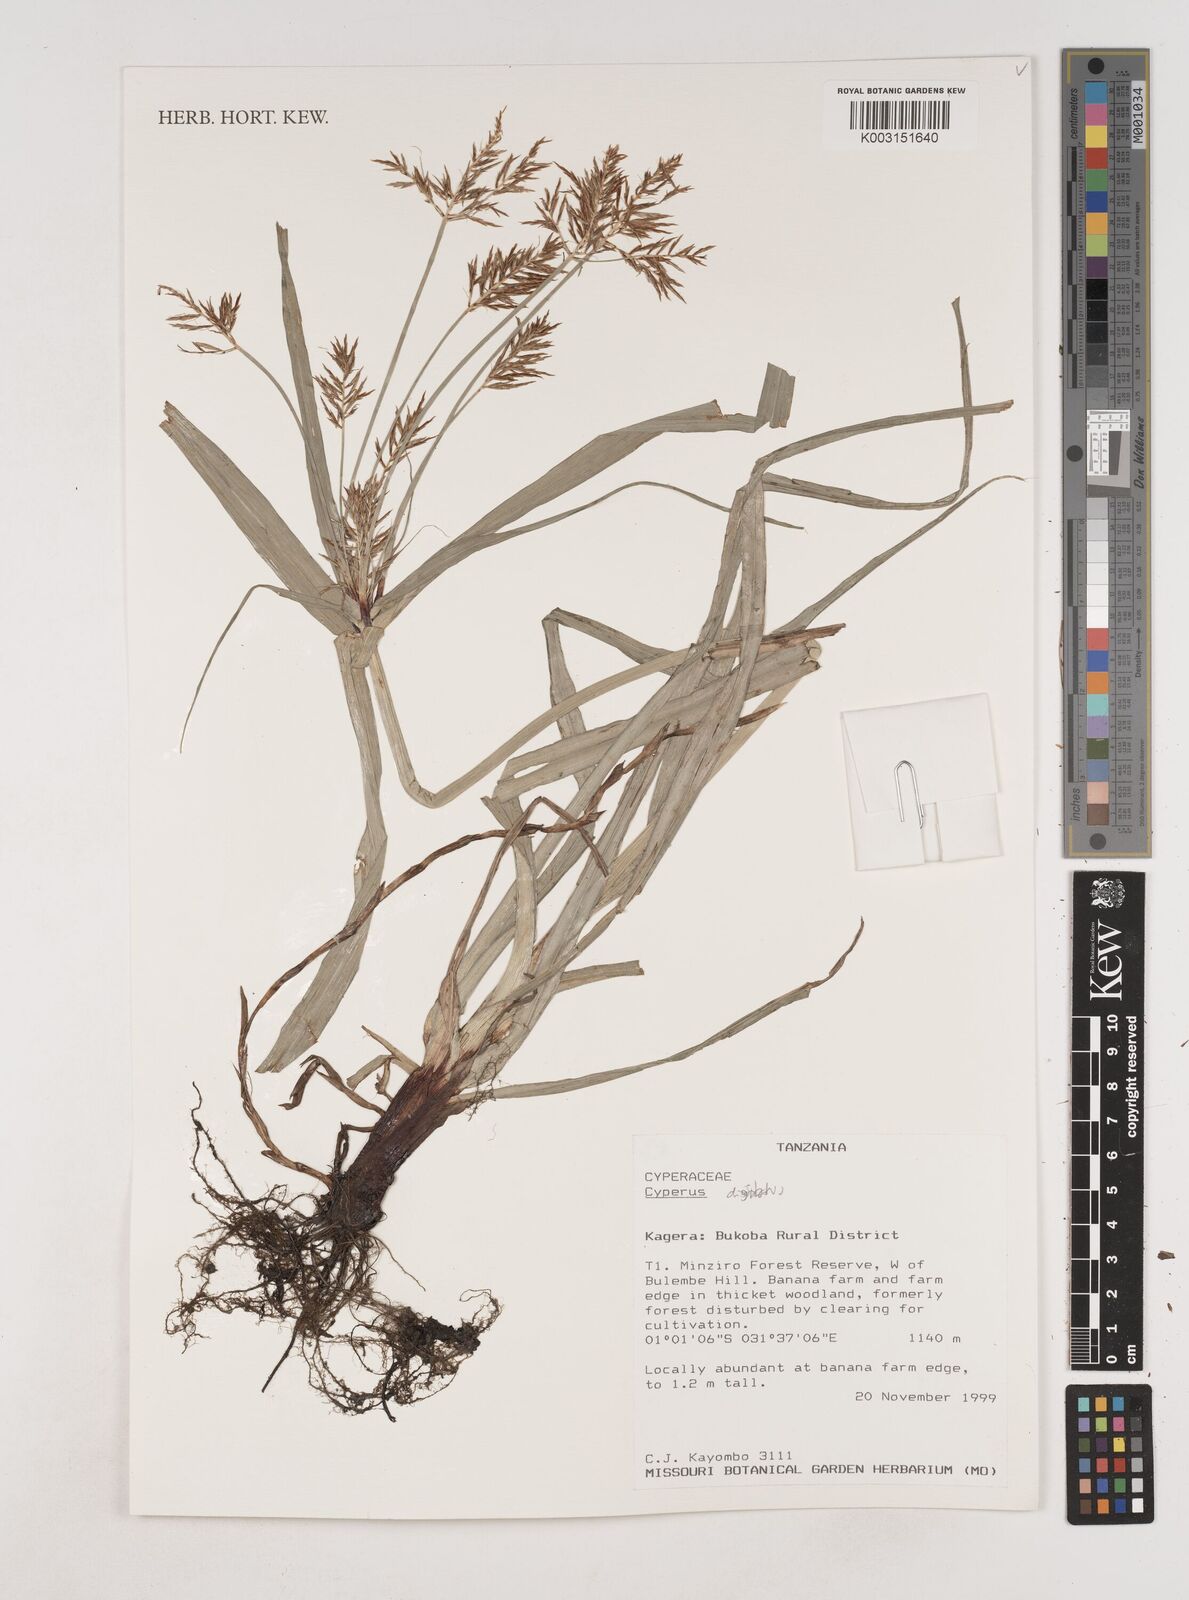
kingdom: Plantae
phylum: Tracheophyta
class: Liliopsida
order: Poales
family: Cyperaceae
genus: Cyperus
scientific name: Cyperus digitatus
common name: Finger flatsedge
